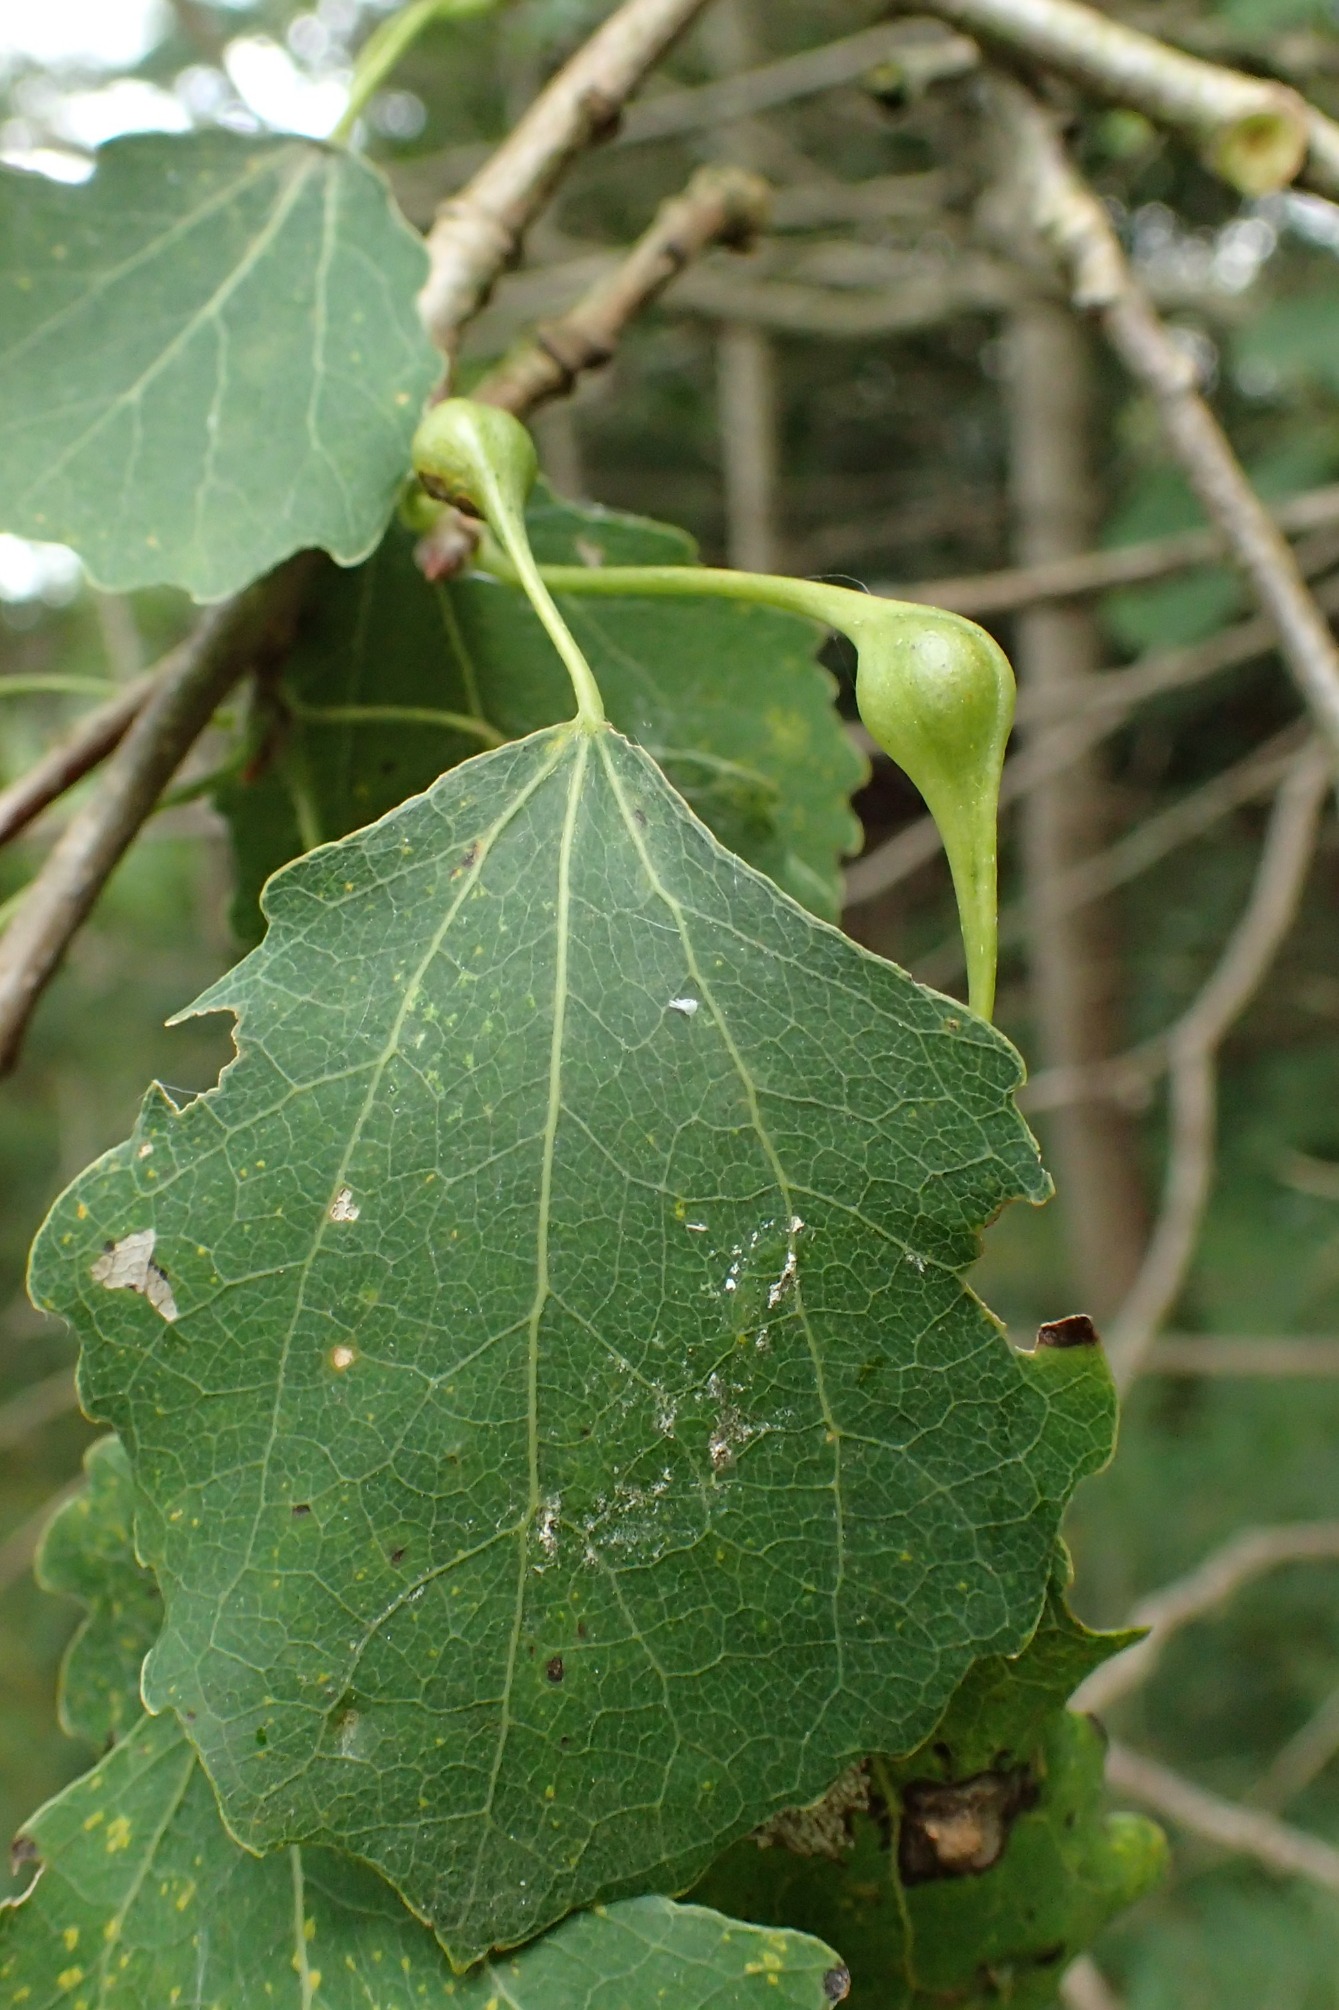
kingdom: Animalia
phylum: Arthropoda
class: Insecta
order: Diptera
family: Cecidomyiidae
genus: Contarinia
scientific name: Contarinia petioli
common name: Aspestilkgalmyg
